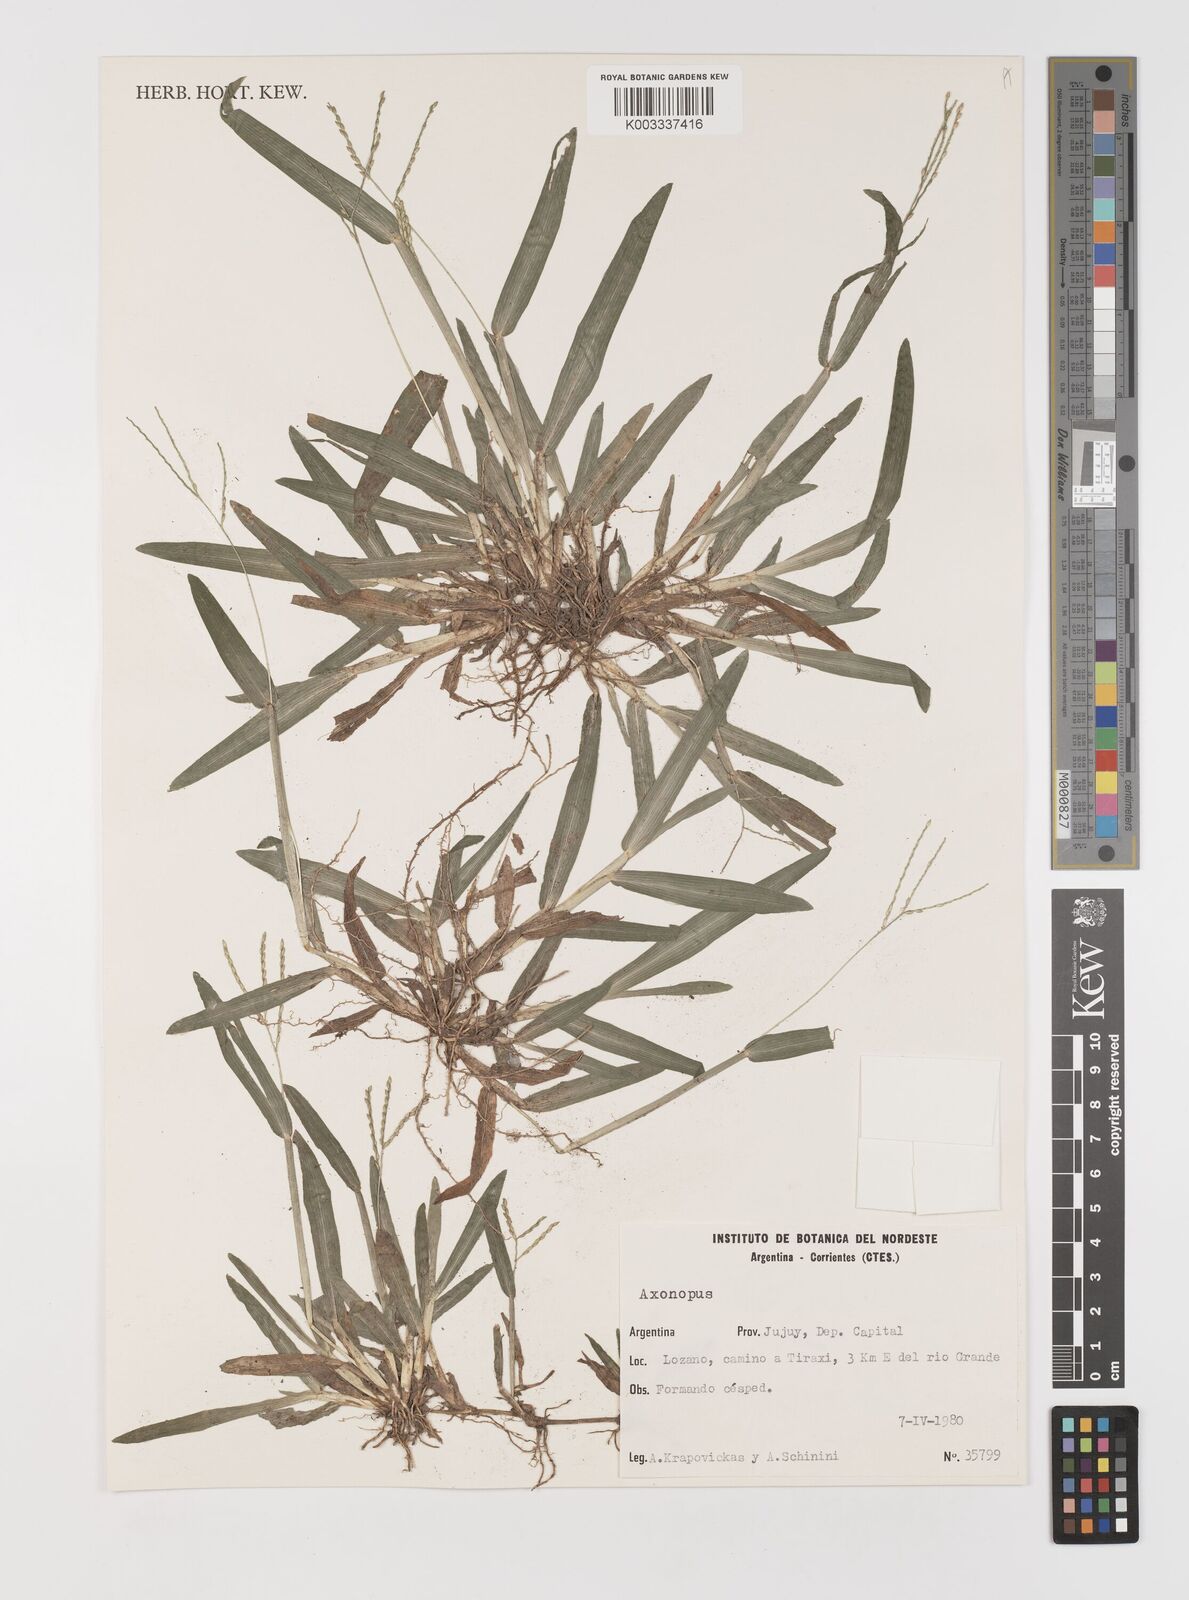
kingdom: Plantae
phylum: Tracheophyta
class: Liliopsida
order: Poales
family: Poaceae
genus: Axonopus
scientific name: Axonopus compressus
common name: American carpet grass
